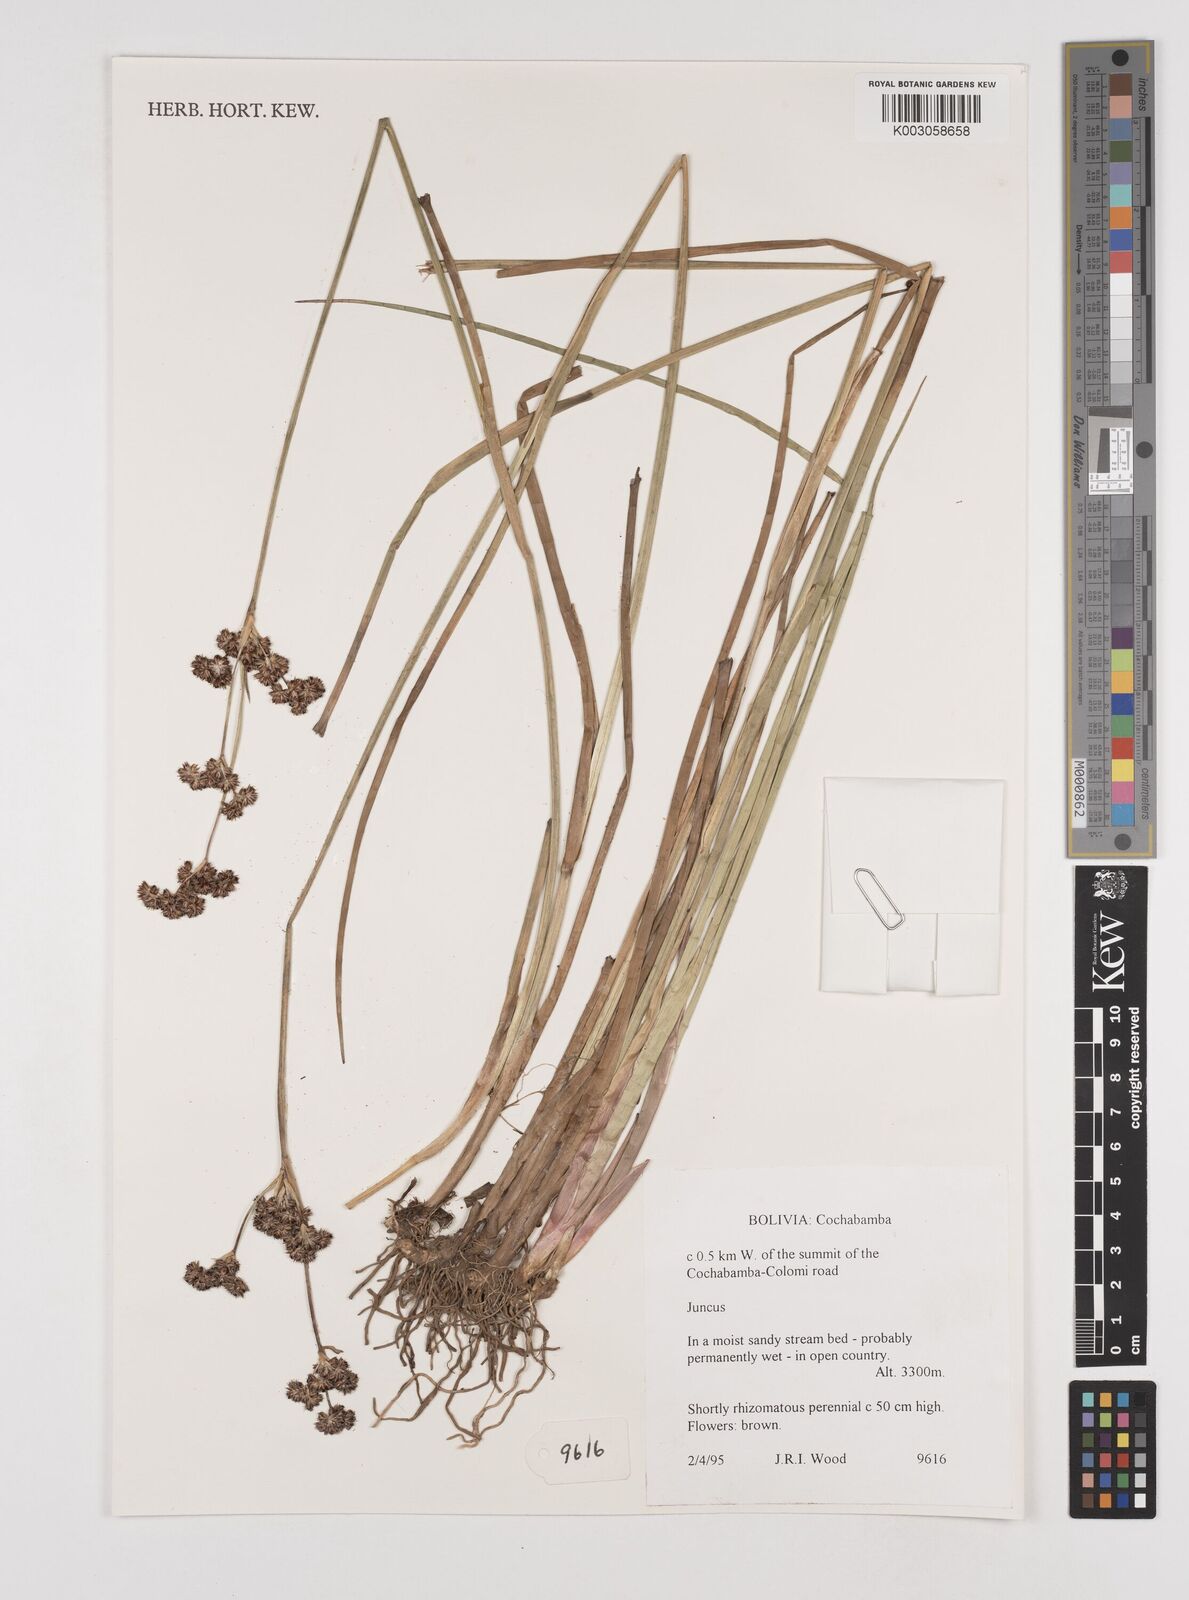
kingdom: Plantae
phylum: Tracheophyta
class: Liliopsida
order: Poales
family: Juncaceae
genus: Juncus
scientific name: Juncus
